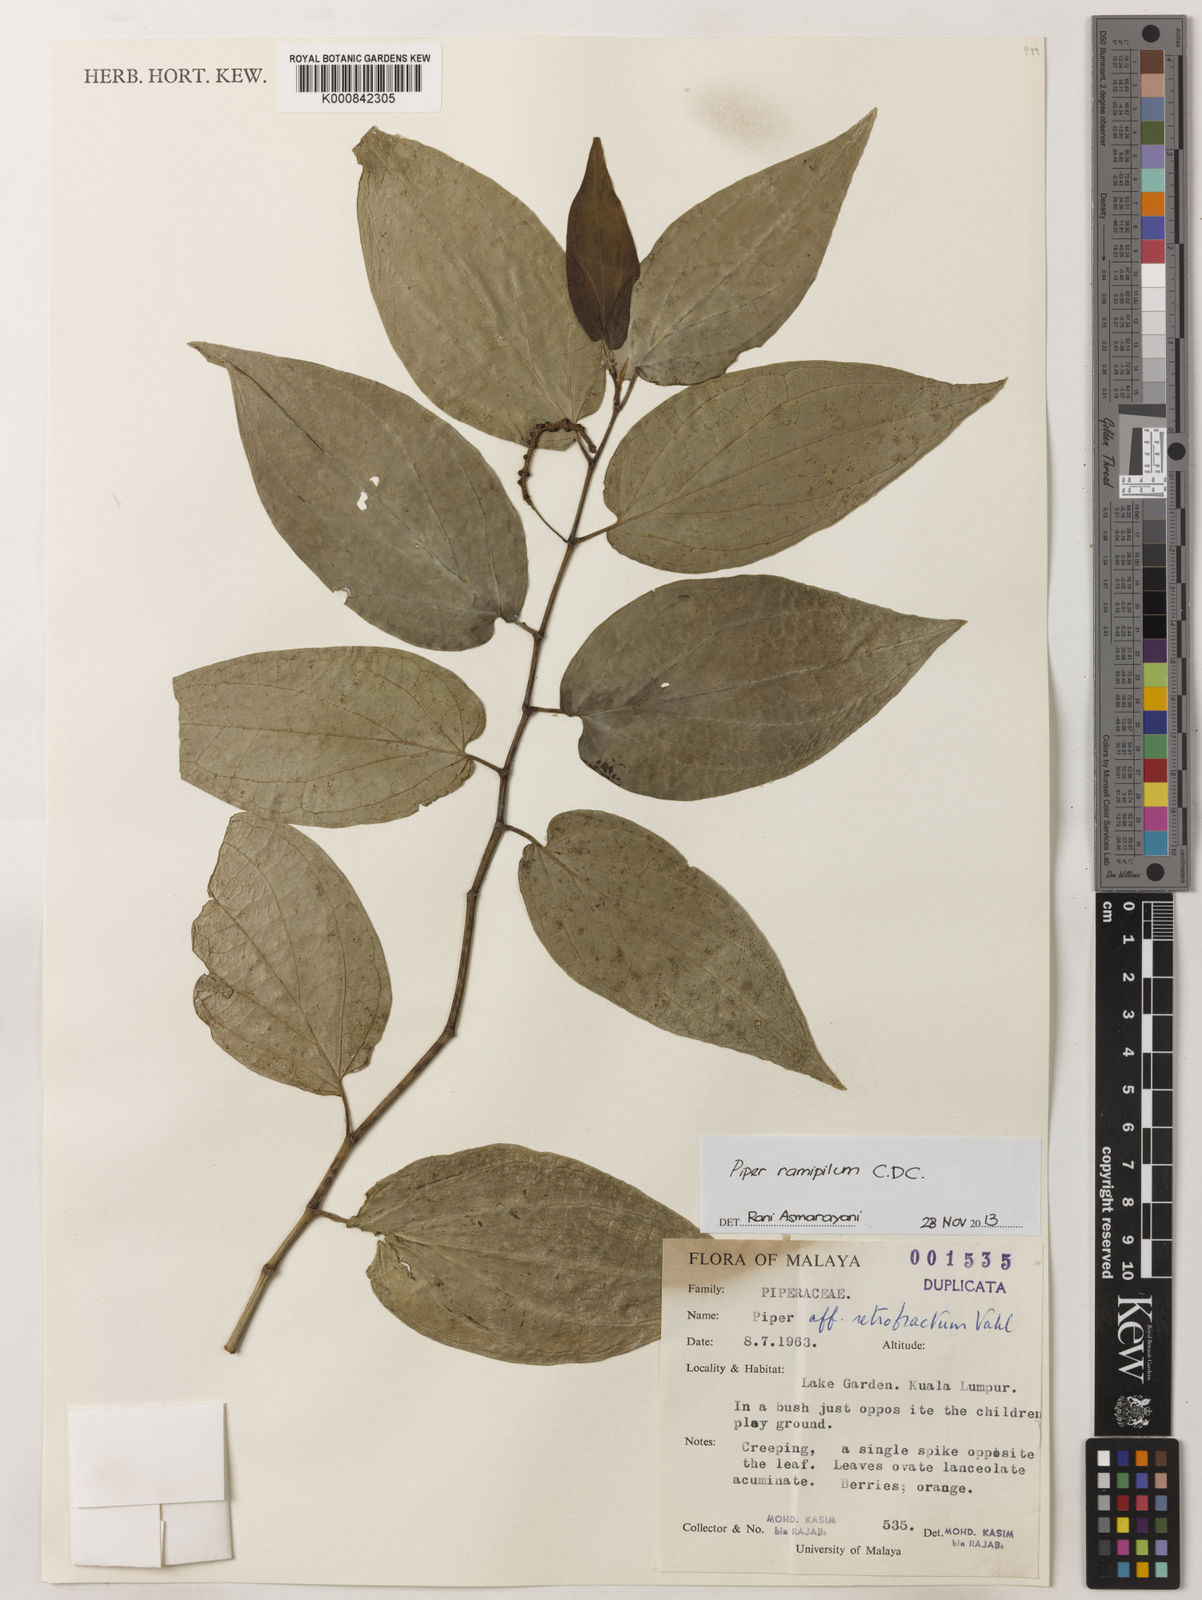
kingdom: Plantae
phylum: Tracheophyta
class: Magnoliopsida
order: Piperales
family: Piperaceae
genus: Piper
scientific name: Piper frustratum
